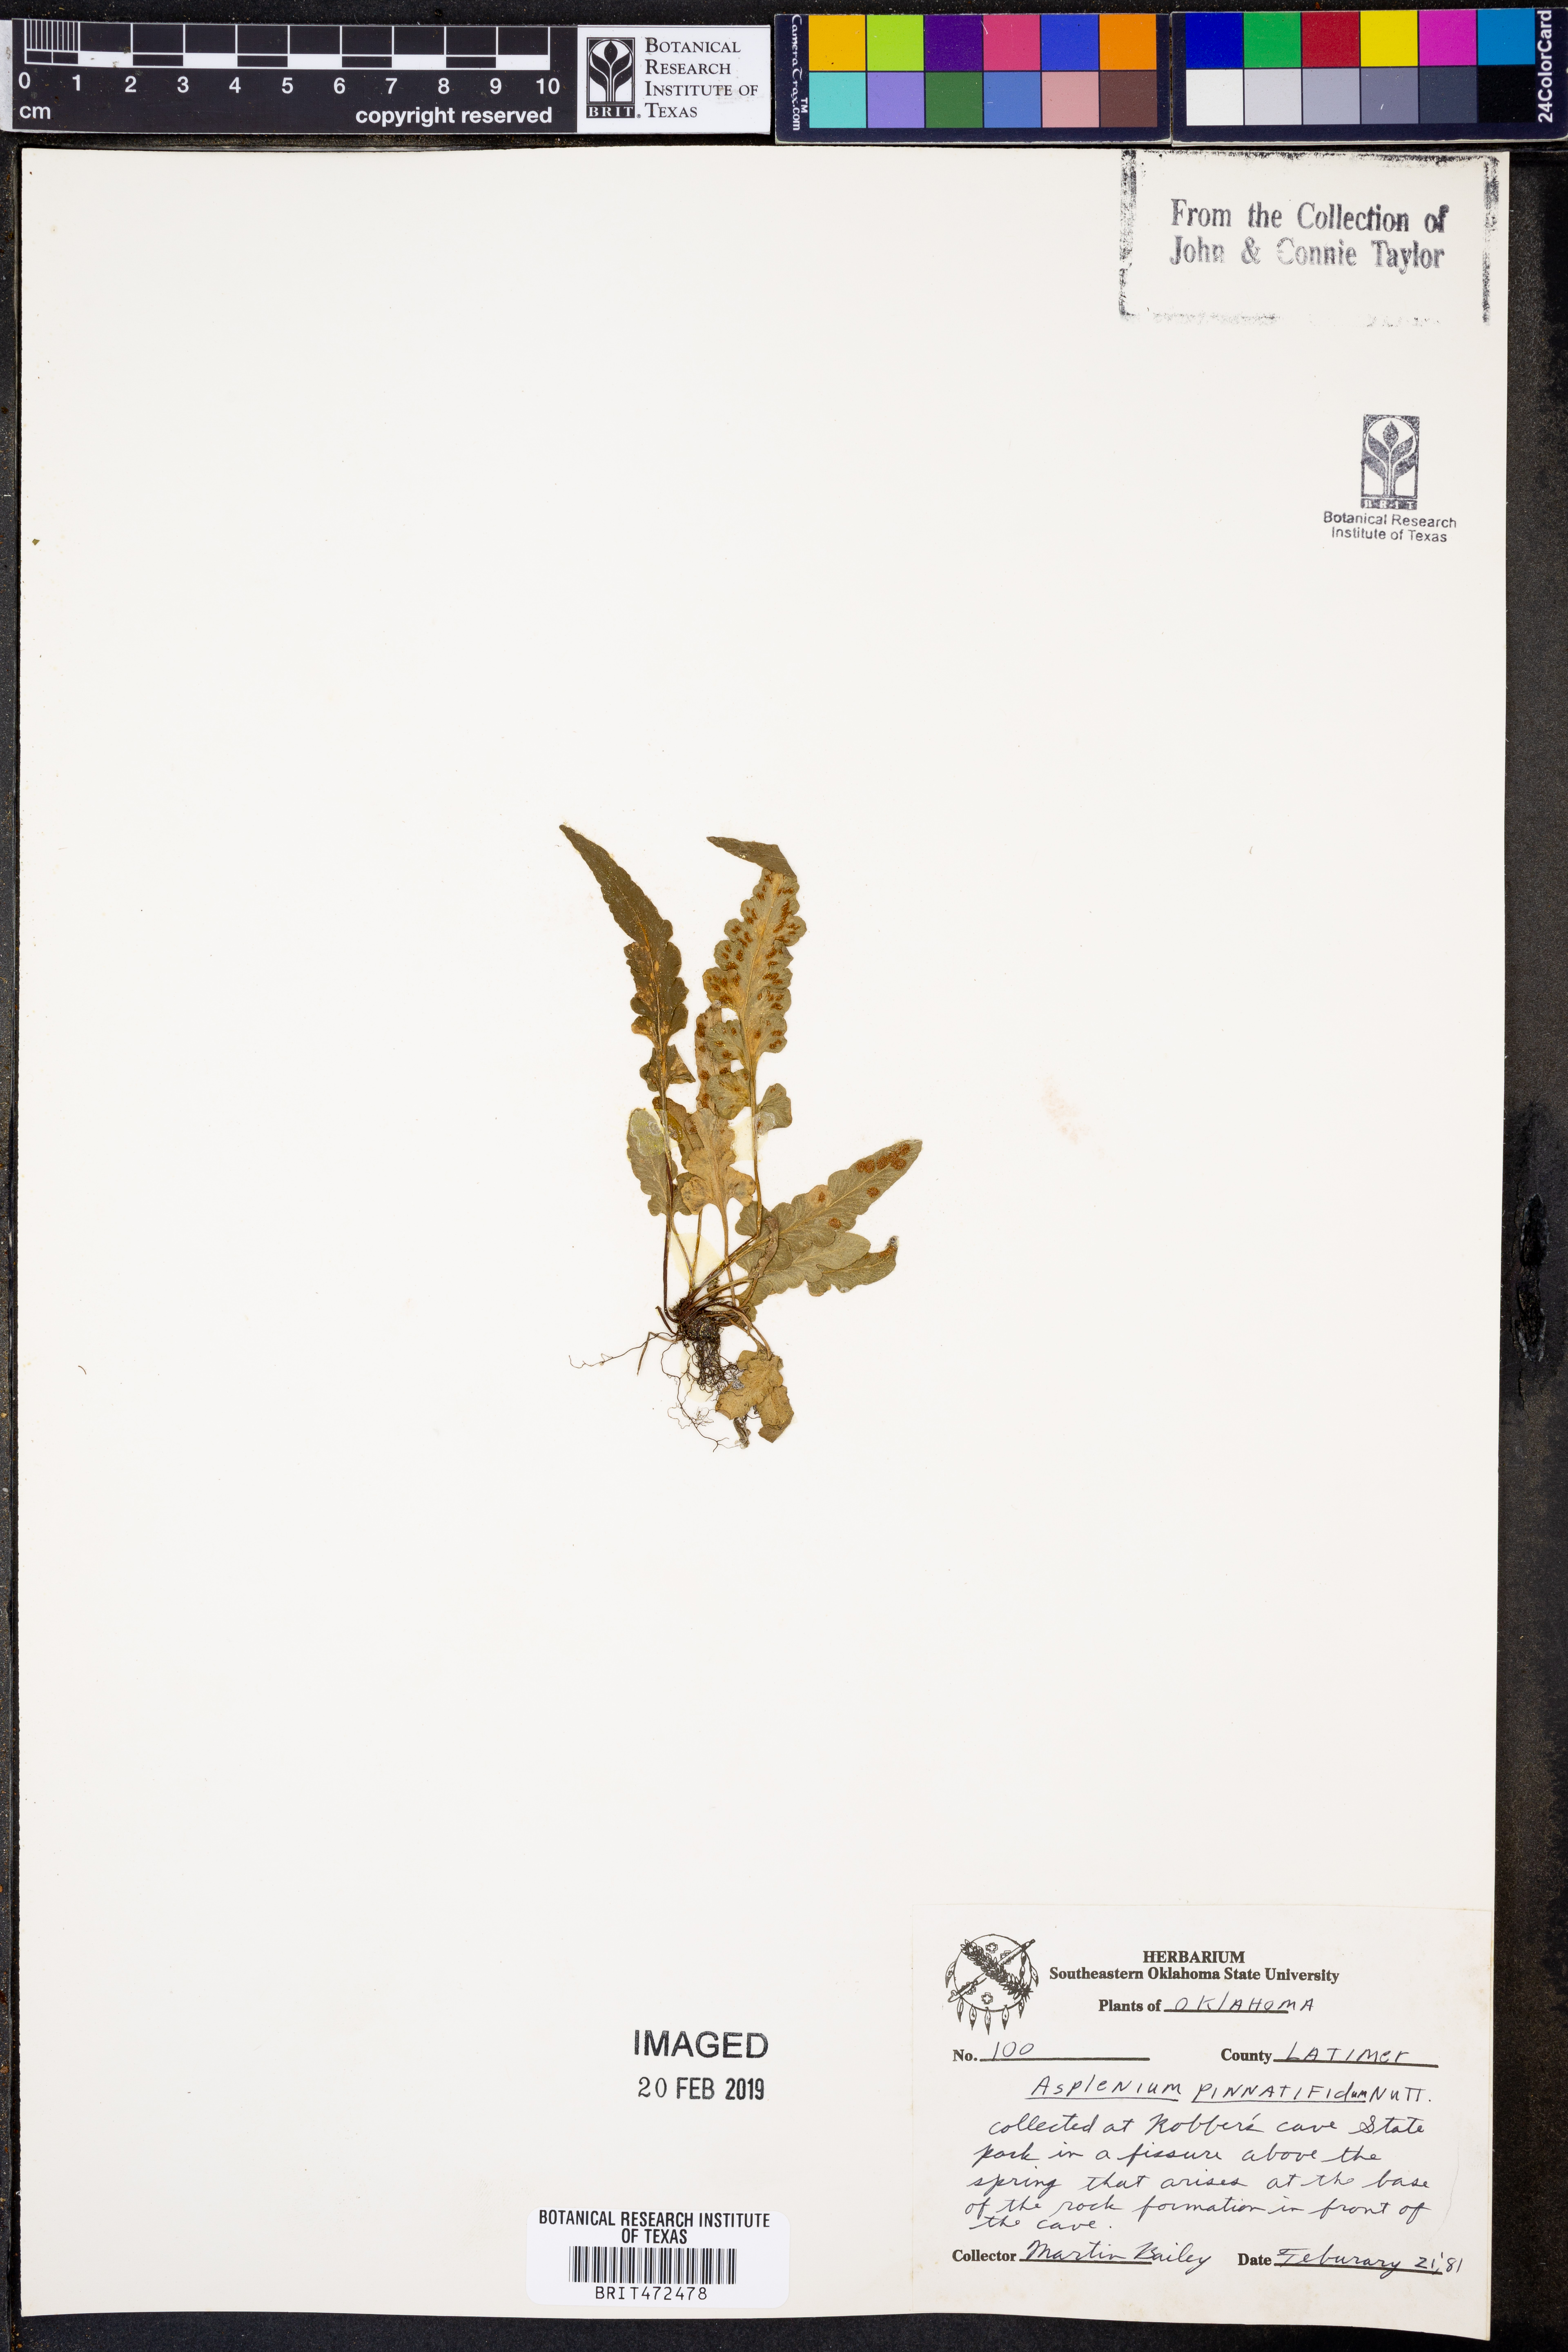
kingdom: Plantae
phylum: Tracheophyta
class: Polypodiopsida
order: Polypodiales
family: Aspleniaceae
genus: Asplenium
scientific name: Asplenium pinnatifidum
